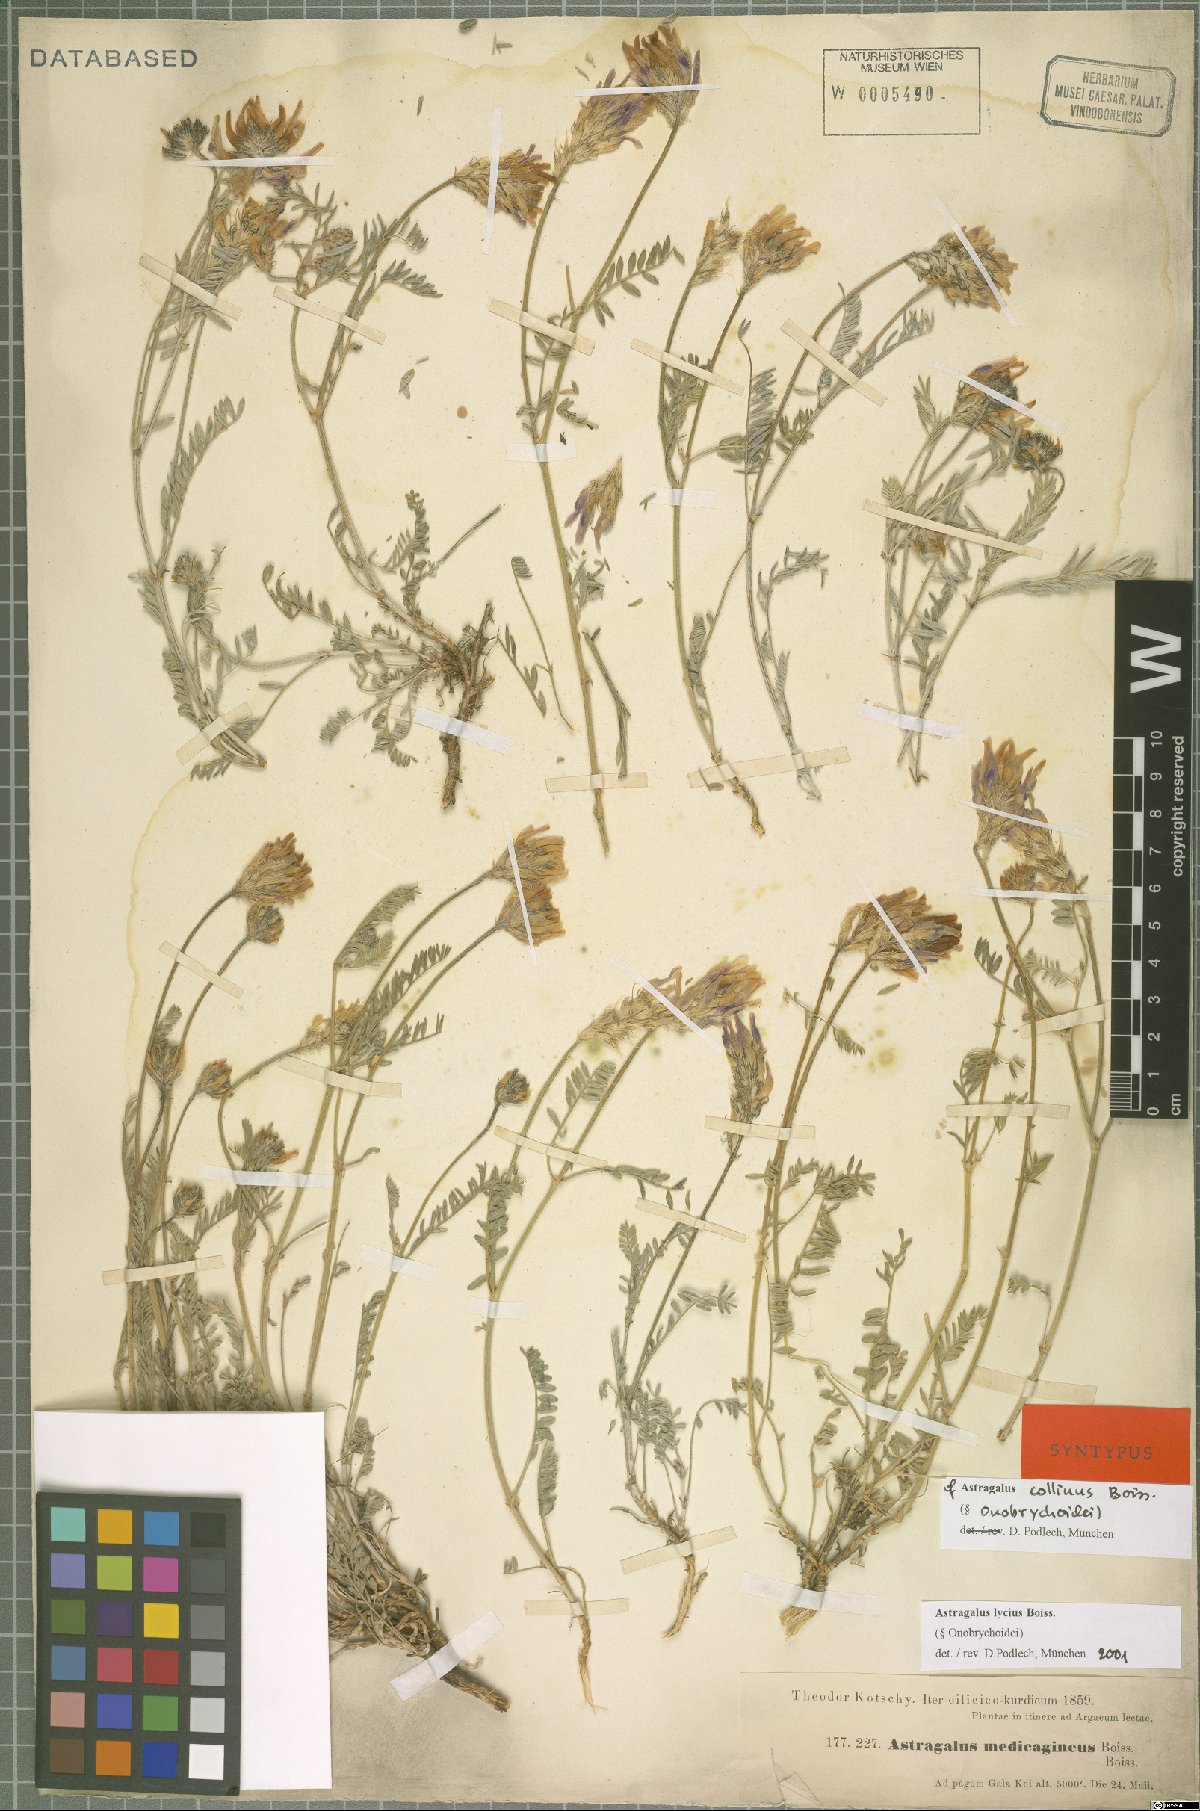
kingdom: Plantae
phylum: Tracheophyta
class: Magnoliopsida
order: Fabales
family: Fabaceae
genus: Astragalus
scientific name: Astragalus lycius
